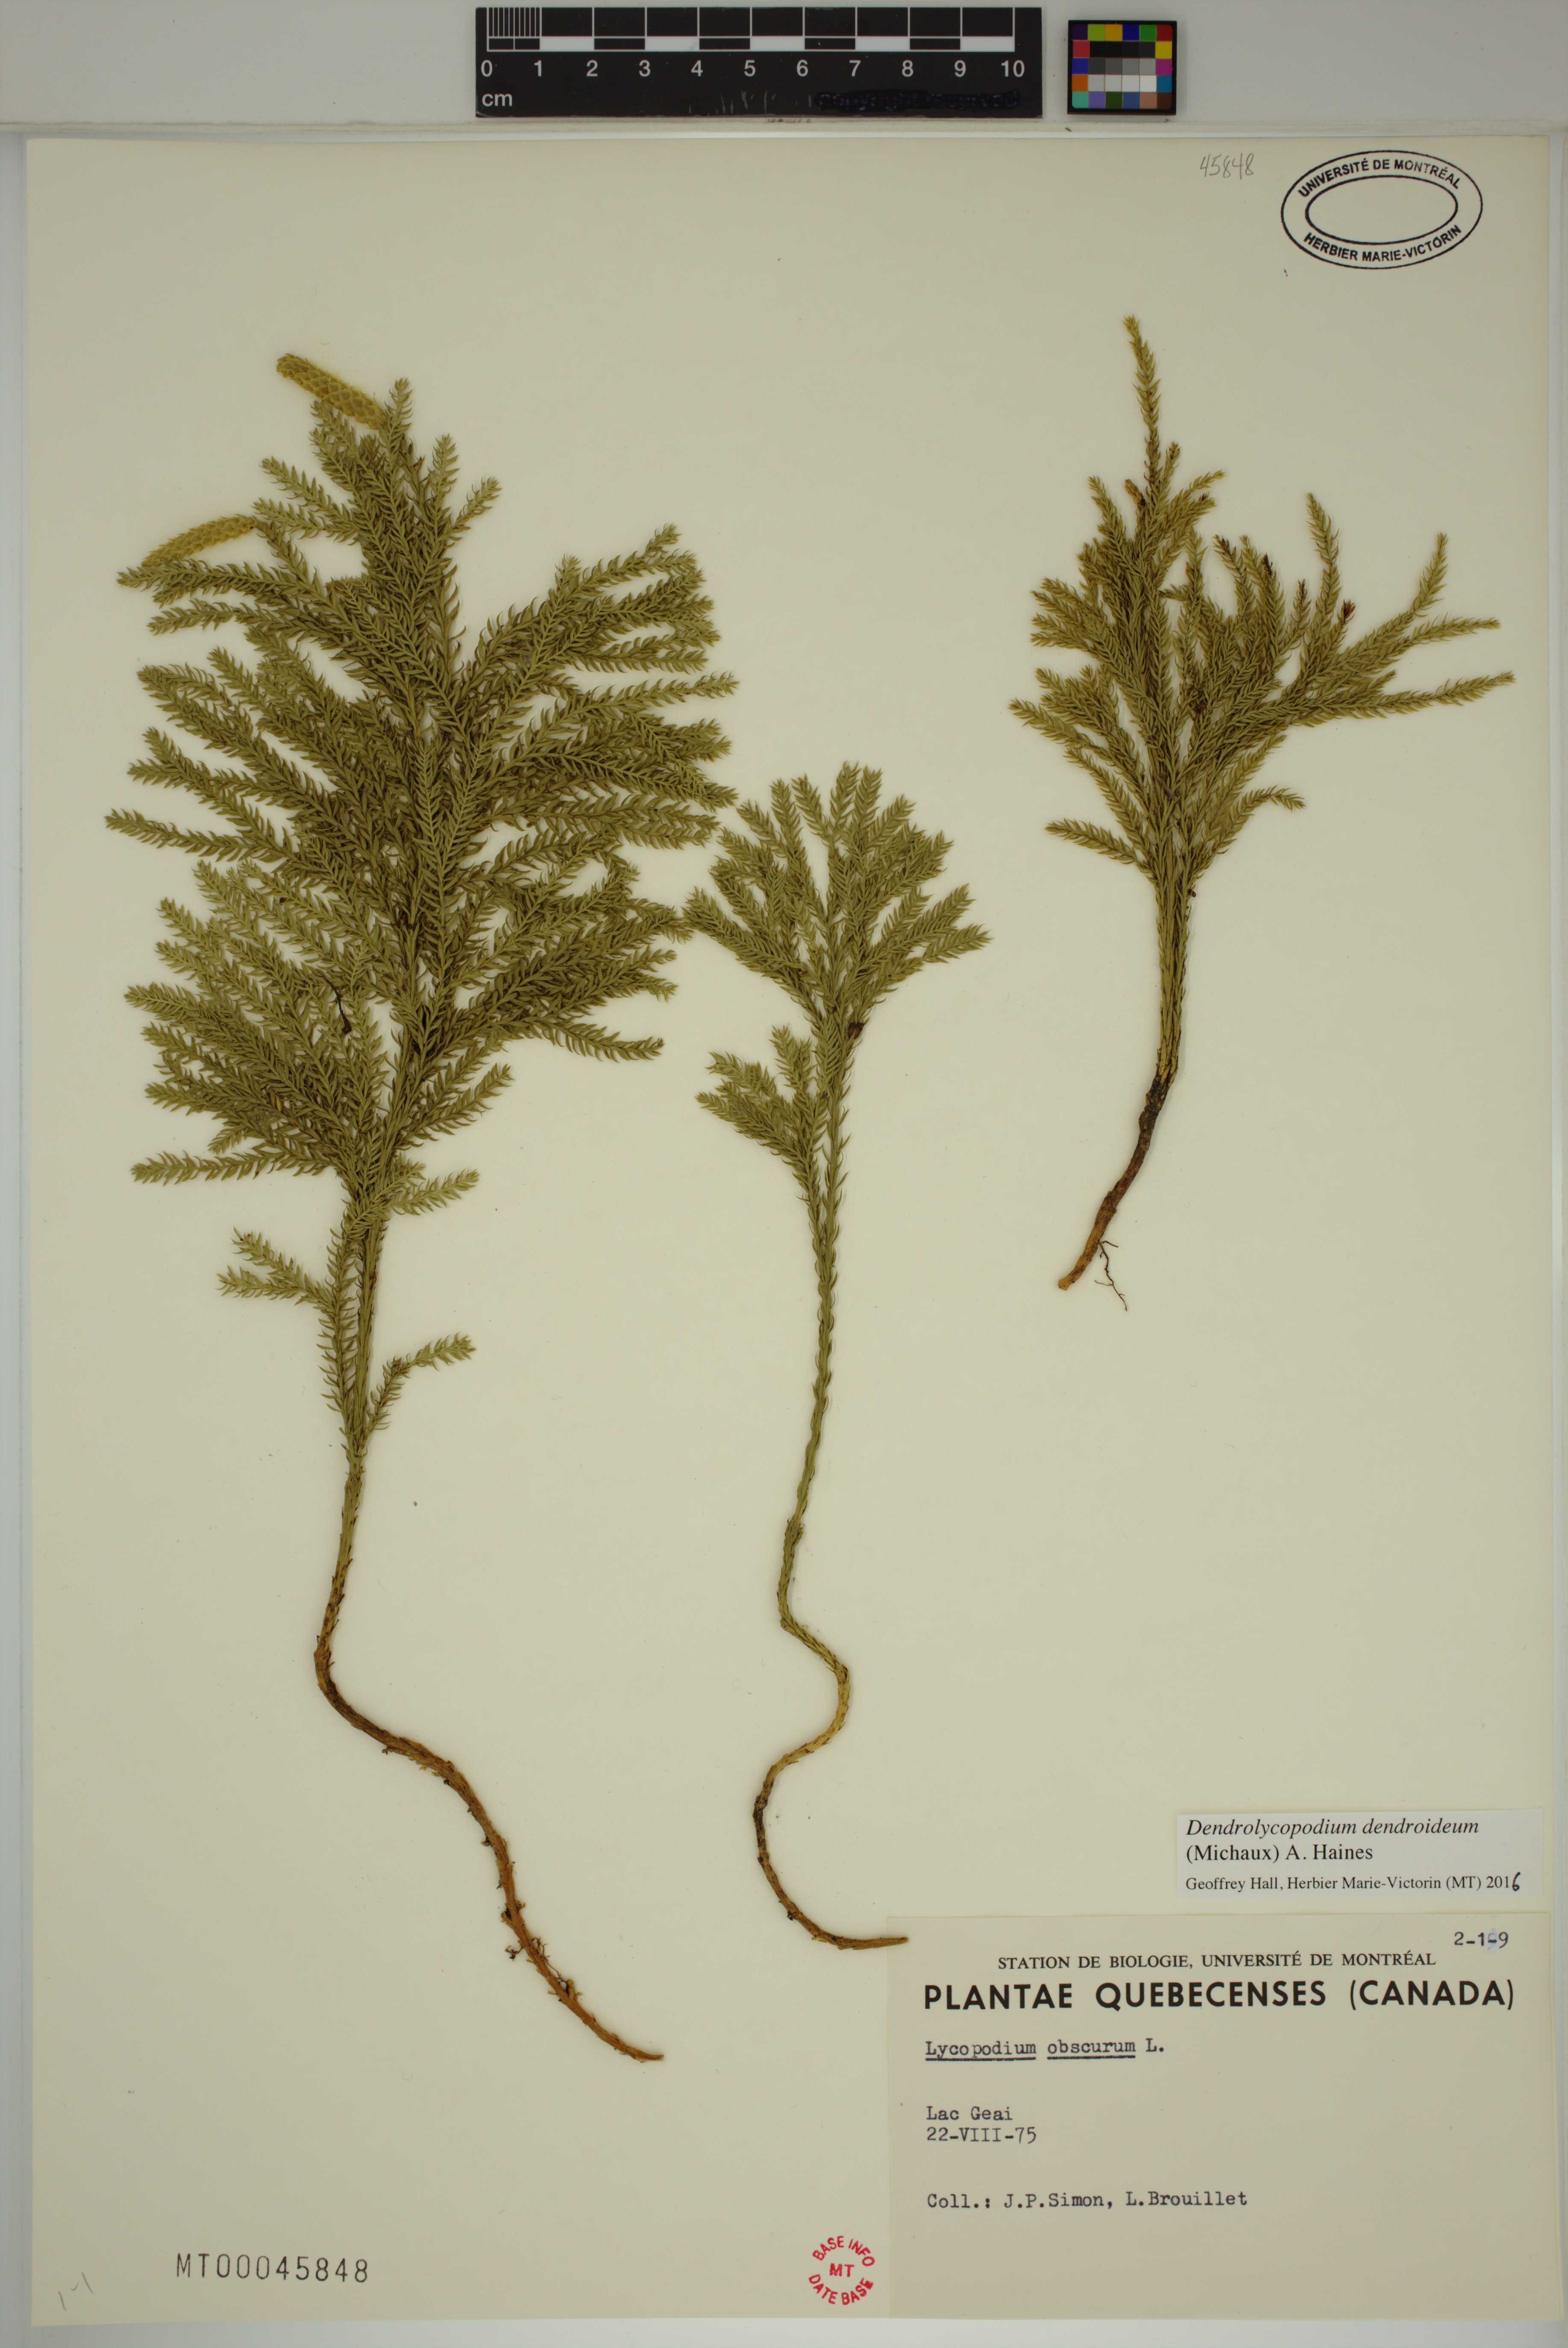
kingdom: Plantae
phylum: Tracheophyta
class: Lycopodiopsida
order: Lycopodiales
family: Lycopodiaceae
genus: Dendrolycopodium
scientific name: Dendrolycopodium dendroideum
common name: Northern tree-clubmoss
